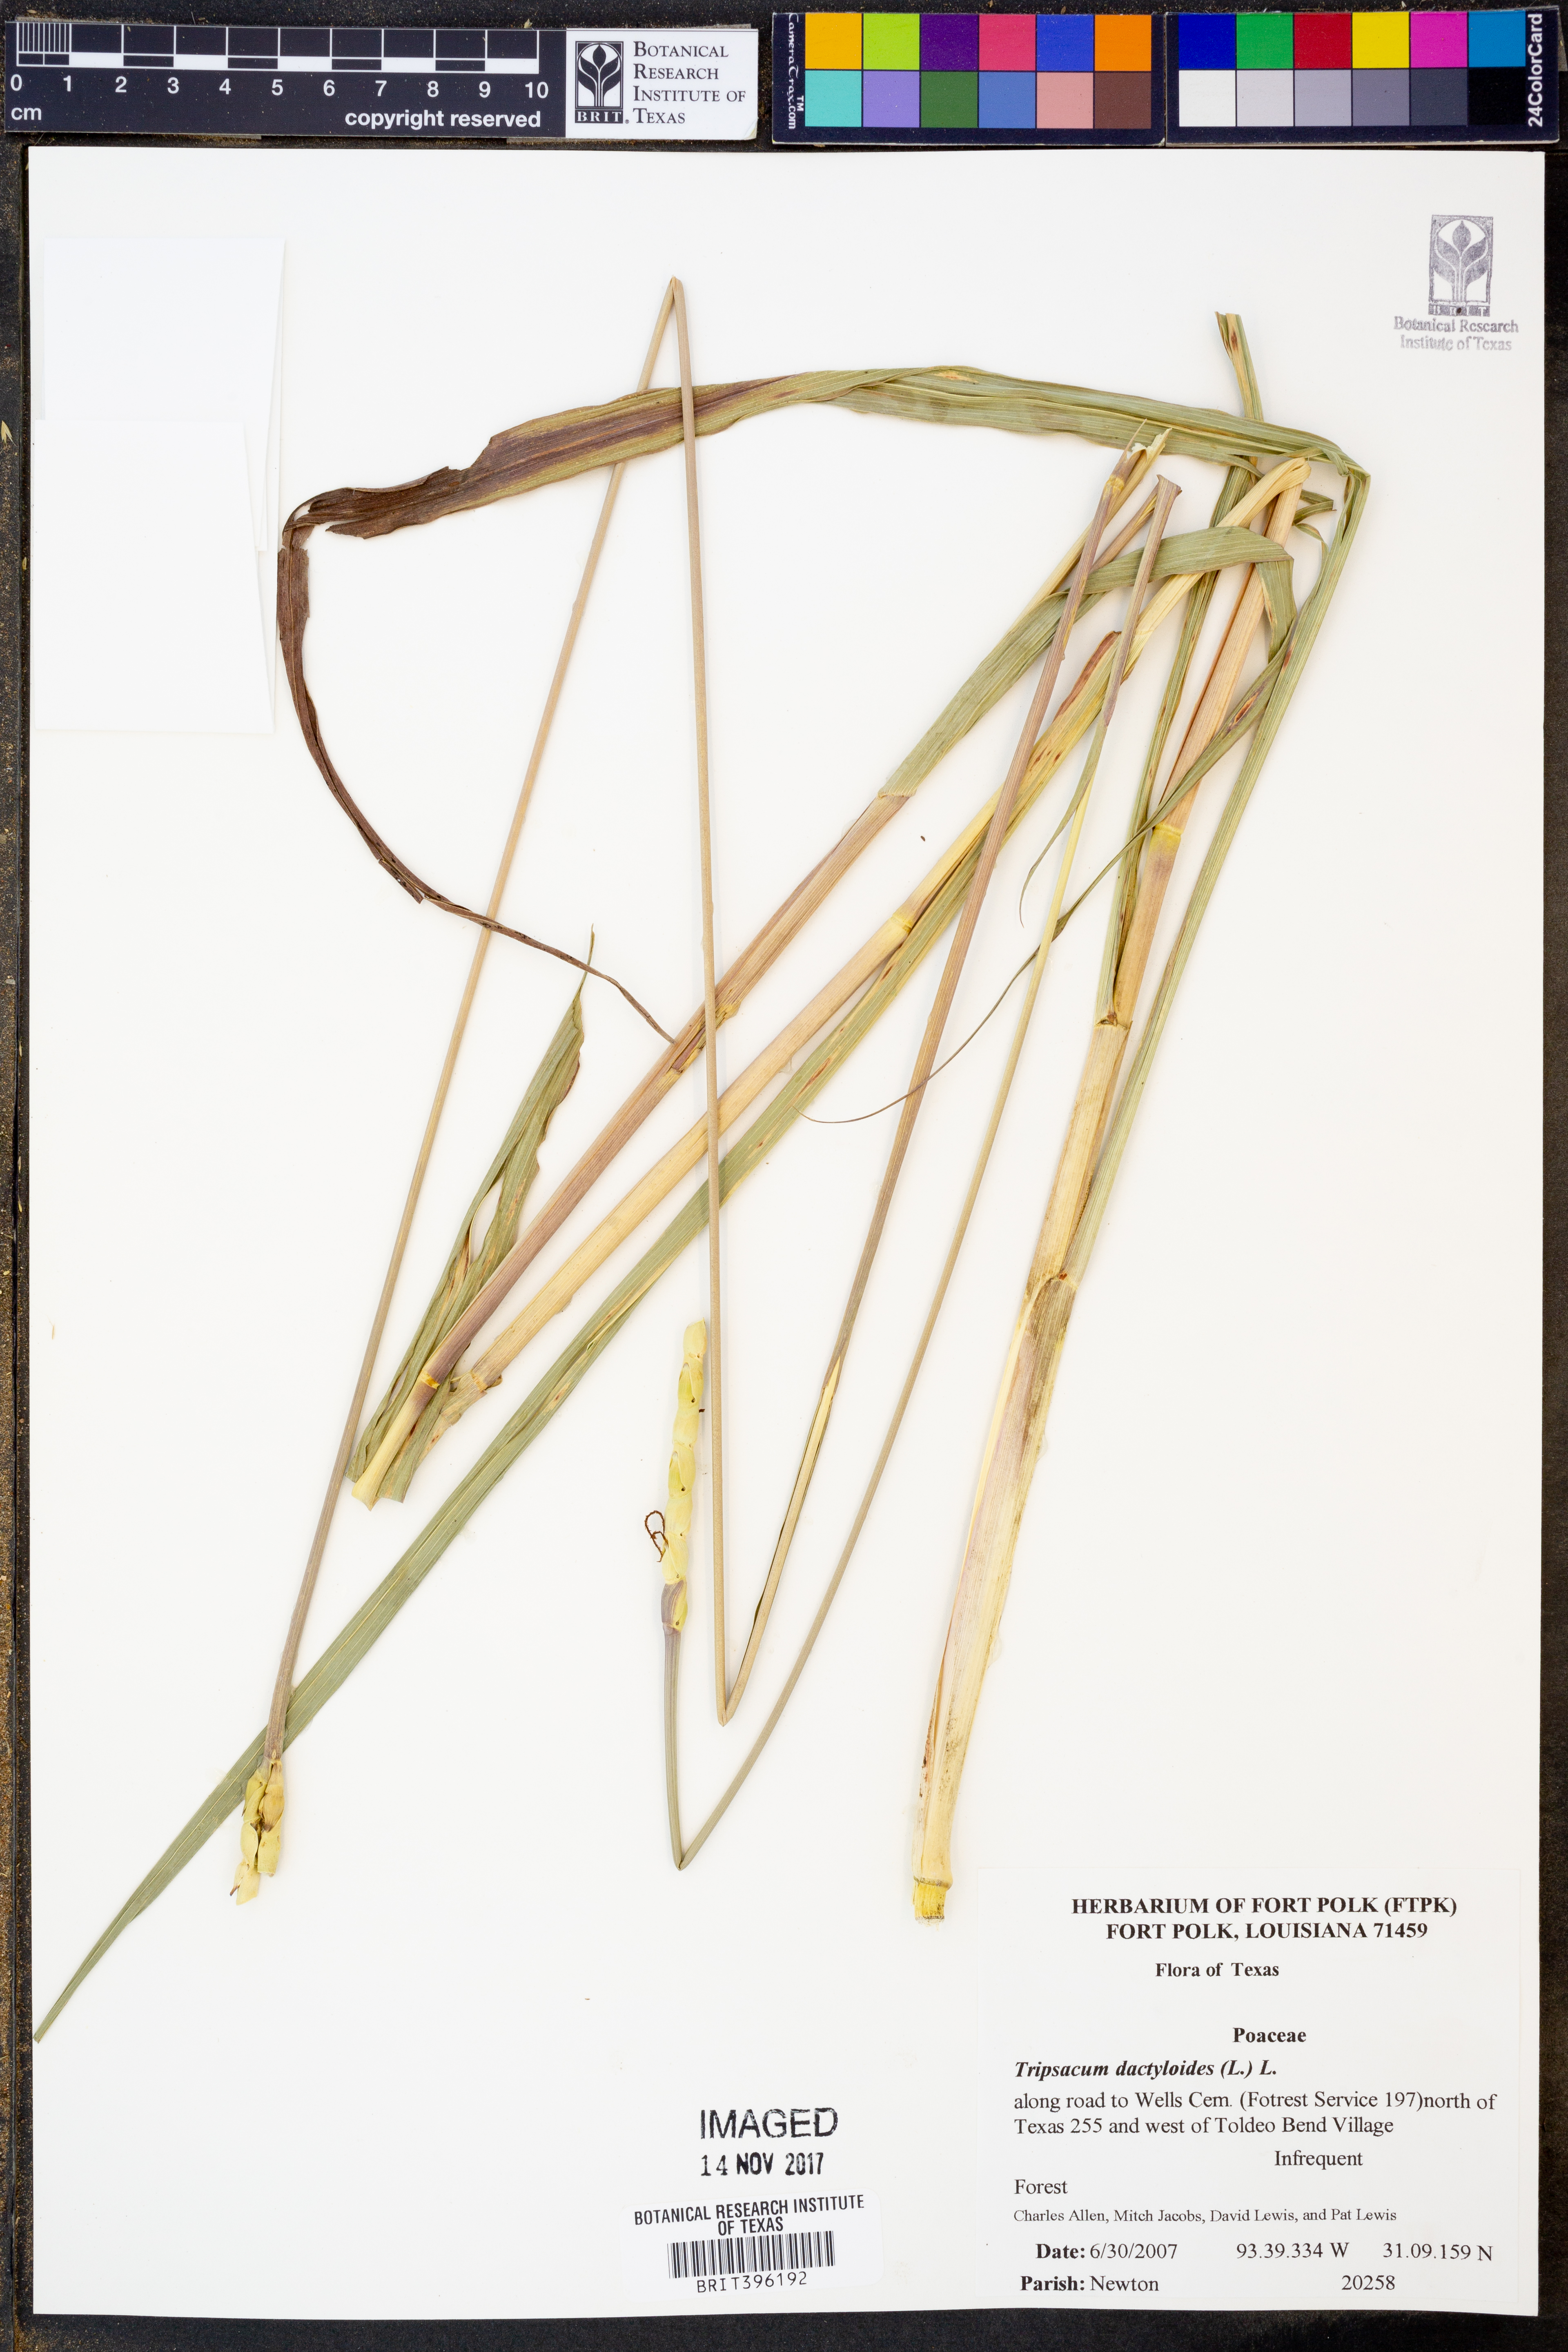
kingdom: Plantae
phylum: Tracheophyta
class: Liliopsida
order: Poales
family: Poaceae
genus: Tripsacum
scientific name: Tripsacum dactyloides
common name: Buffalo-grass
